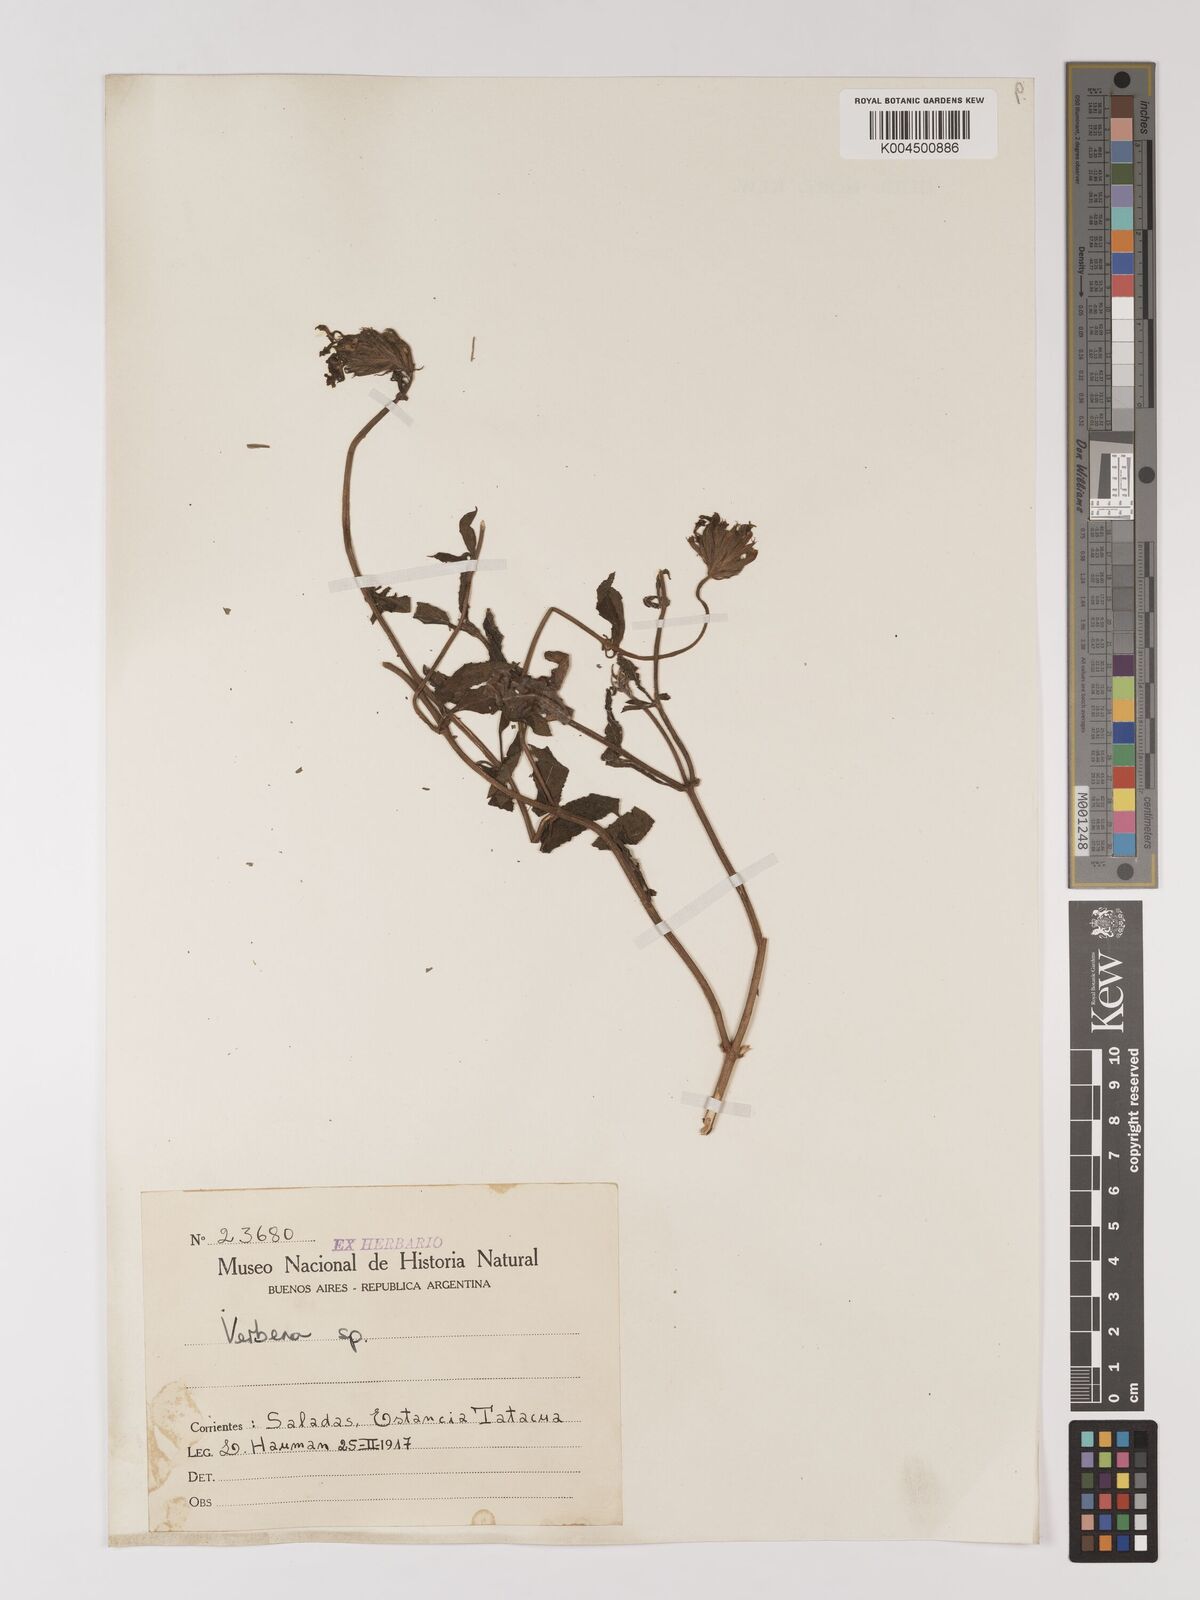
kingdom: Plantae
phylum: Tracheophyta
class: Magnoliopsida
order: Lamiales
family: Verbenaceae
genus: Verbena
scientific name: Verbena
